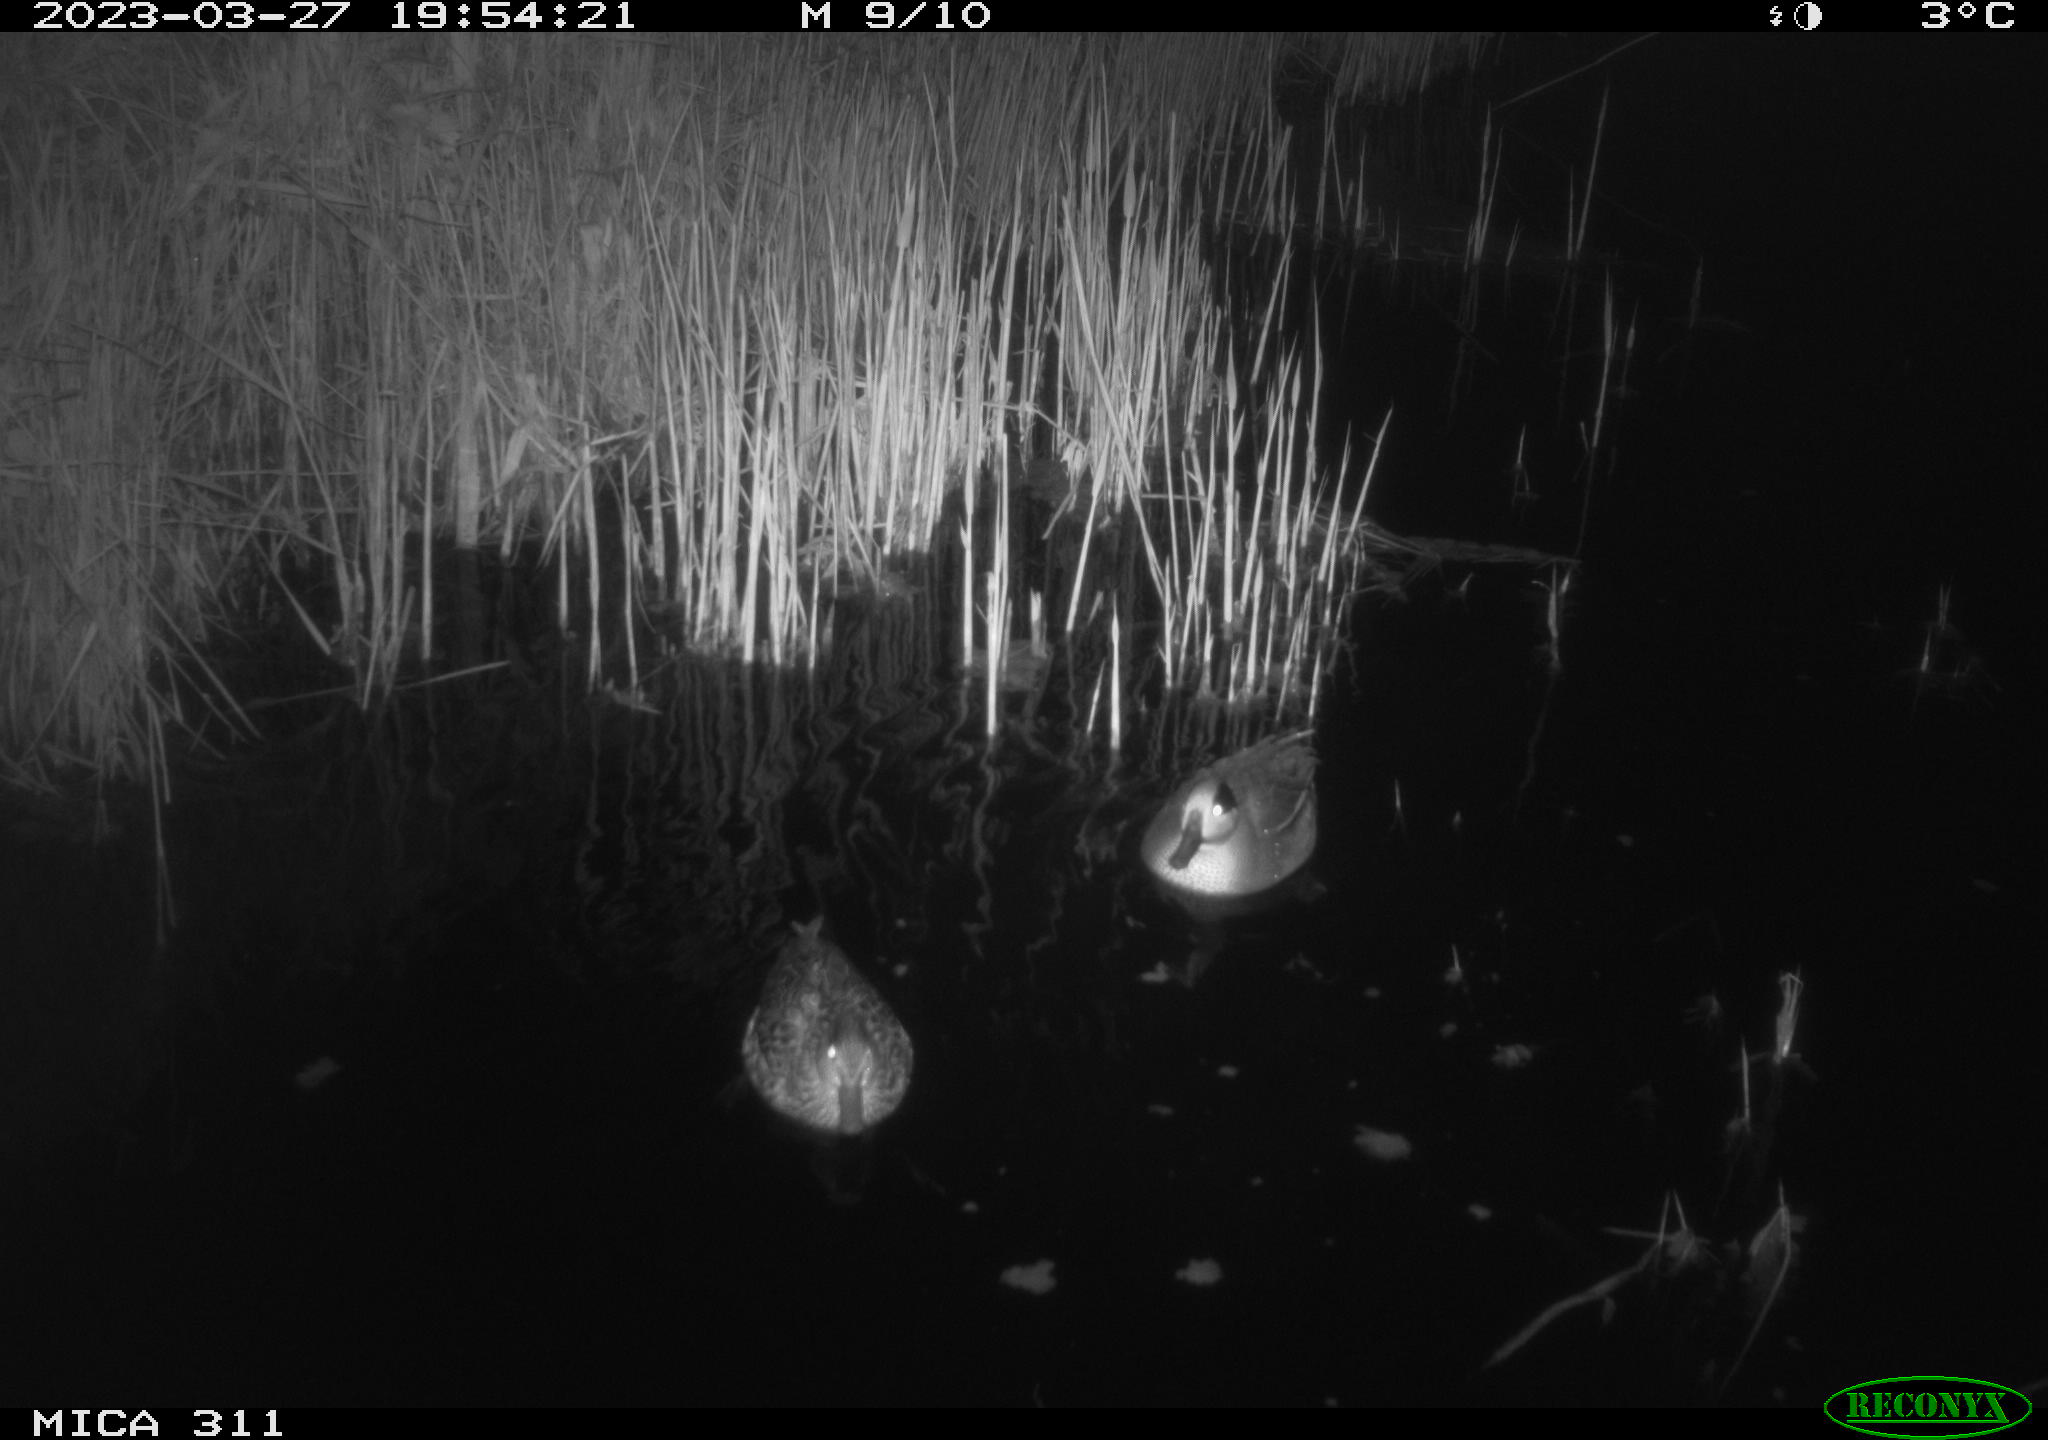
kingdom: Animalia
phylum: Chordata
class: Aves
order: Anseriformes
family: Anatidae
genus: Anas
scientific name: Anas
